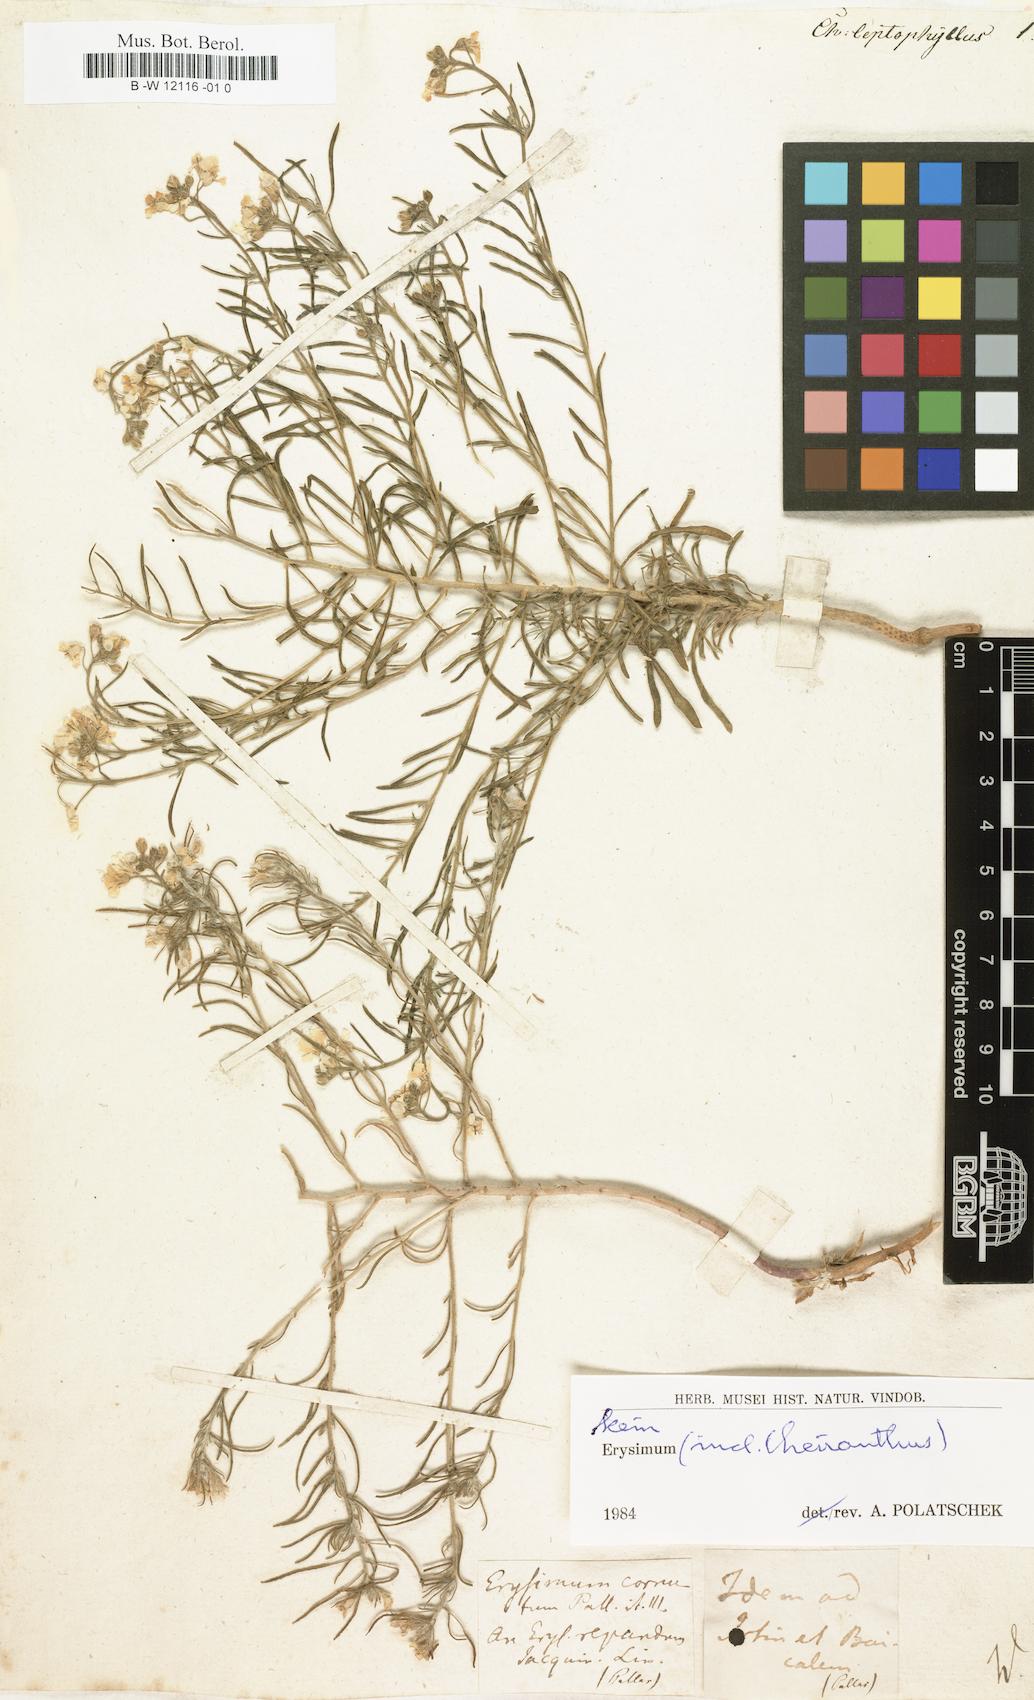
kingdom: Plantae
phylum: Tracheophyta
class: Magnoliopsida
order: Brassicales
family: Brassicaceae
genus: Erysimum
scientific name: Erysimum leptophyllum
